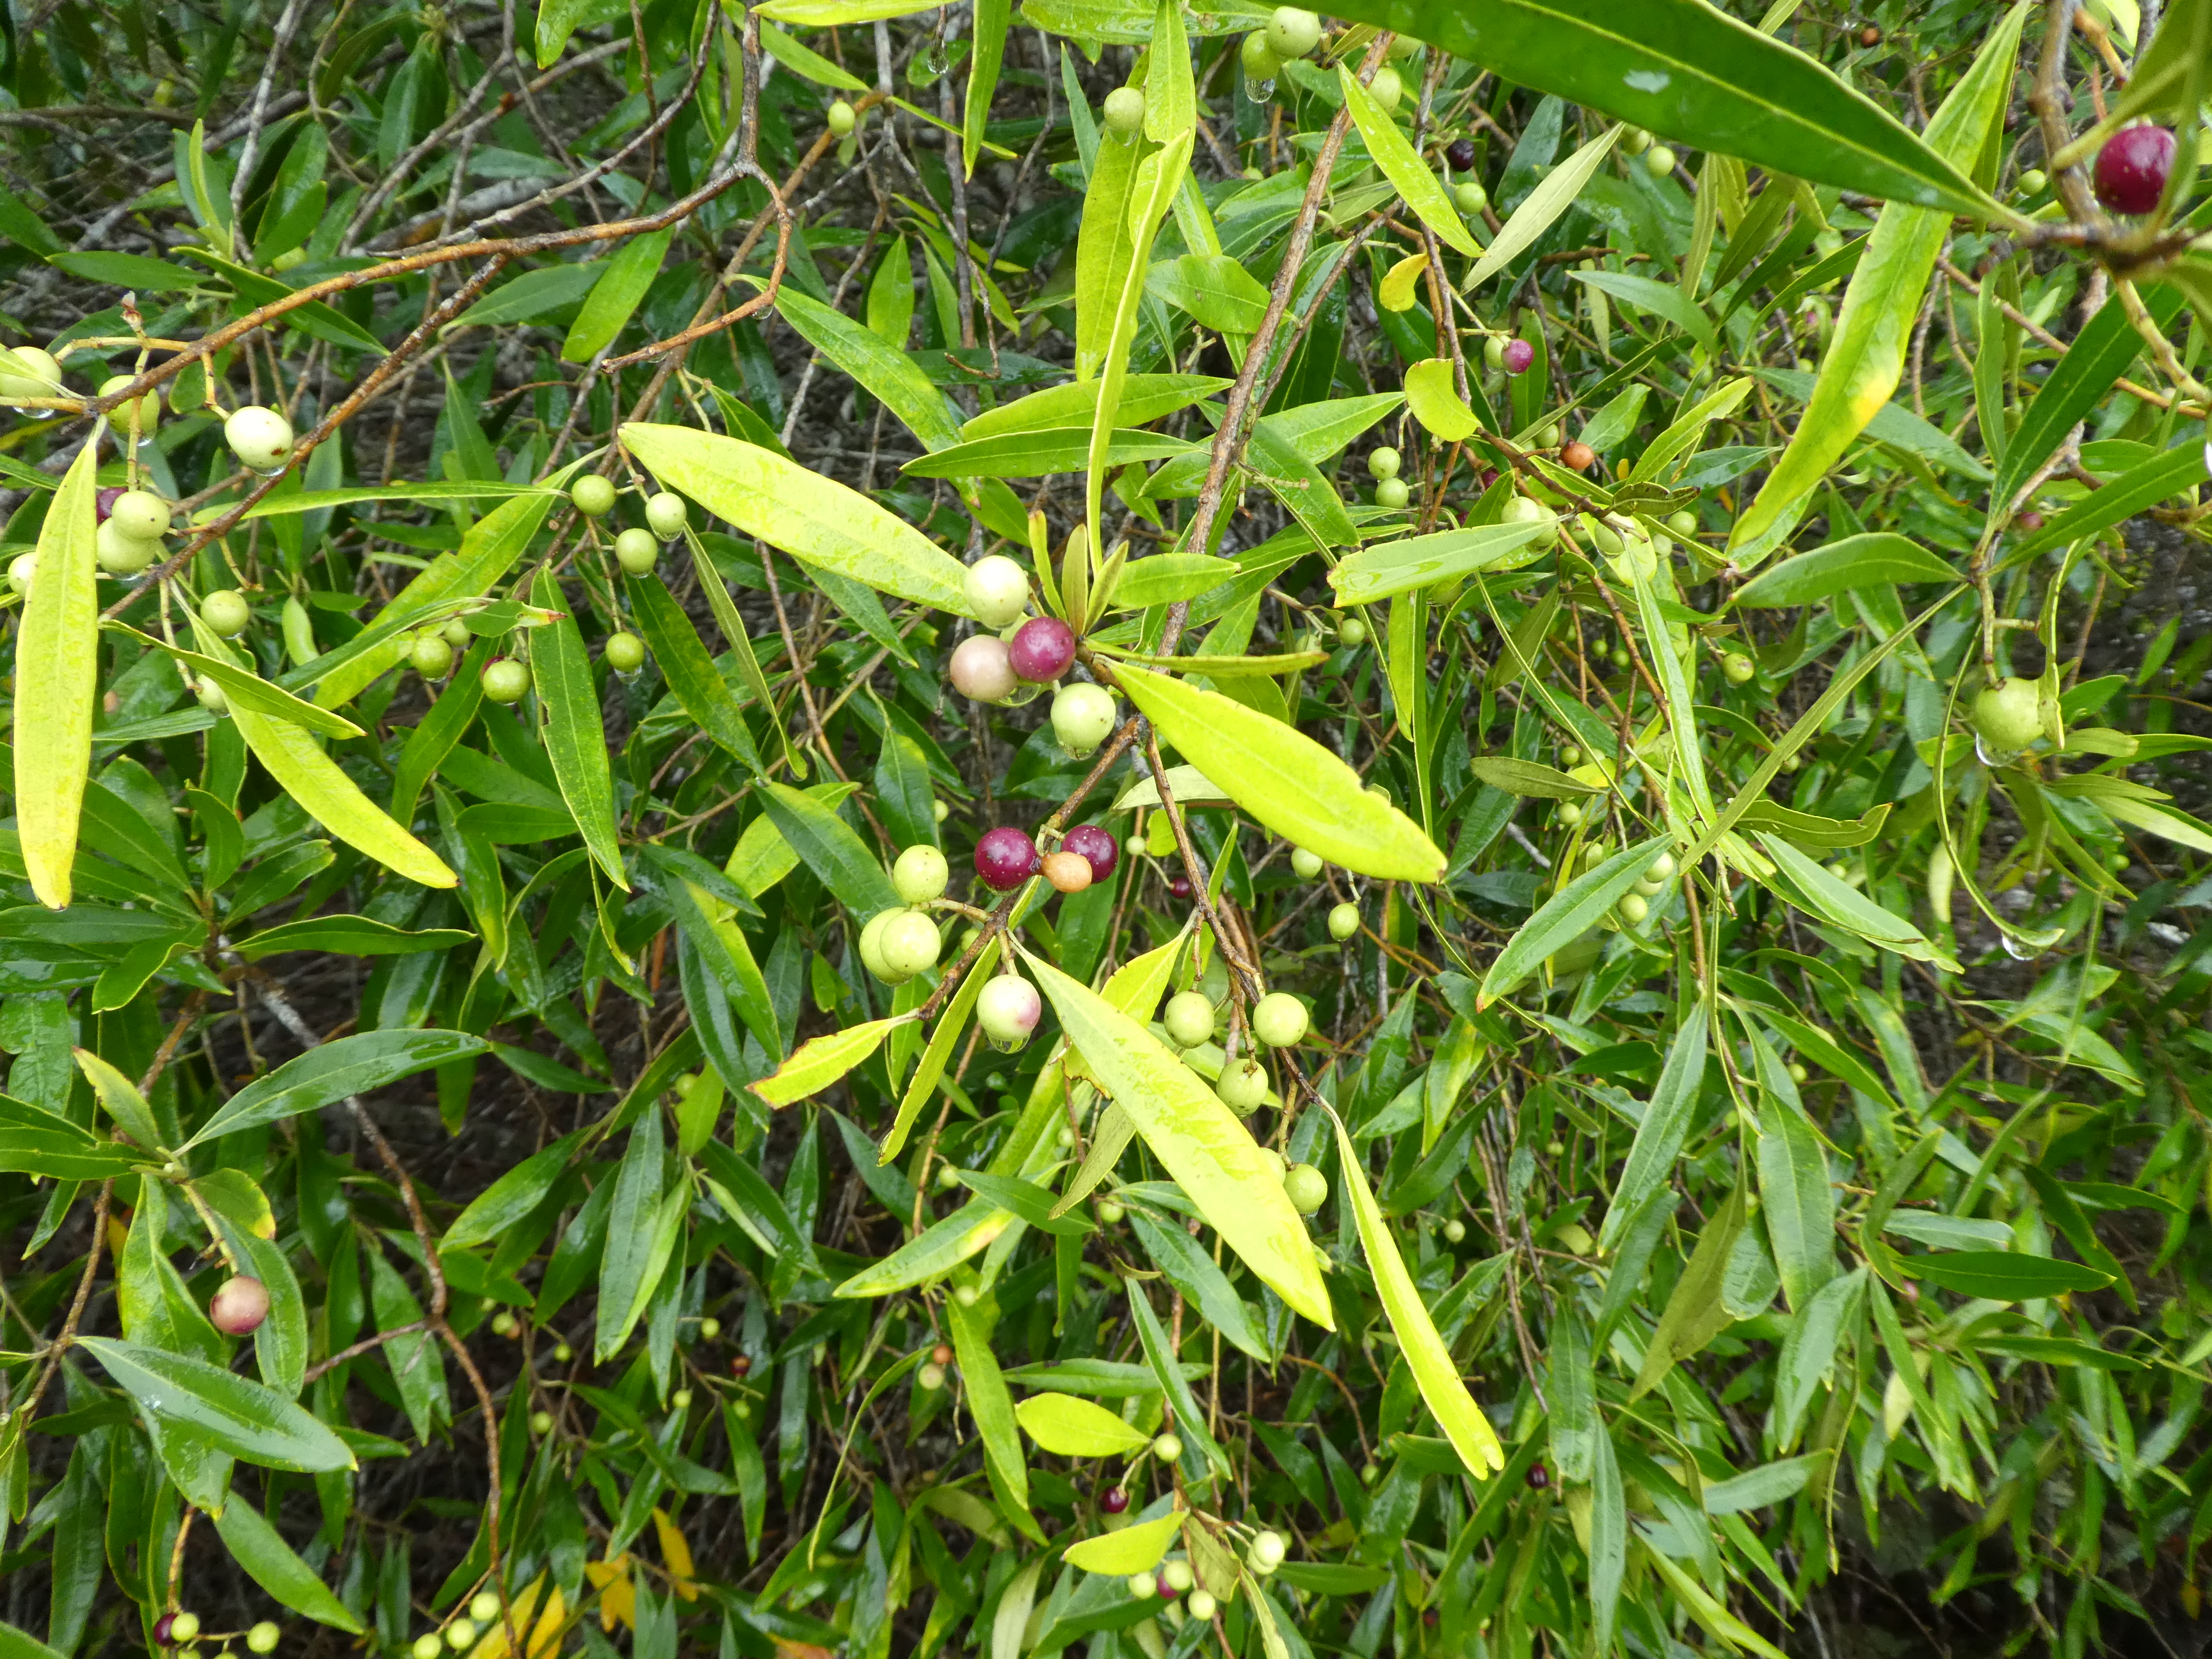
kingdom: Plantae
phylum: Tracheophyta
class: Magnoliopsida
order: Lamiales
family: Oleaceae
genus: Olea
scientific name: Olea europaea
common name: Olive
